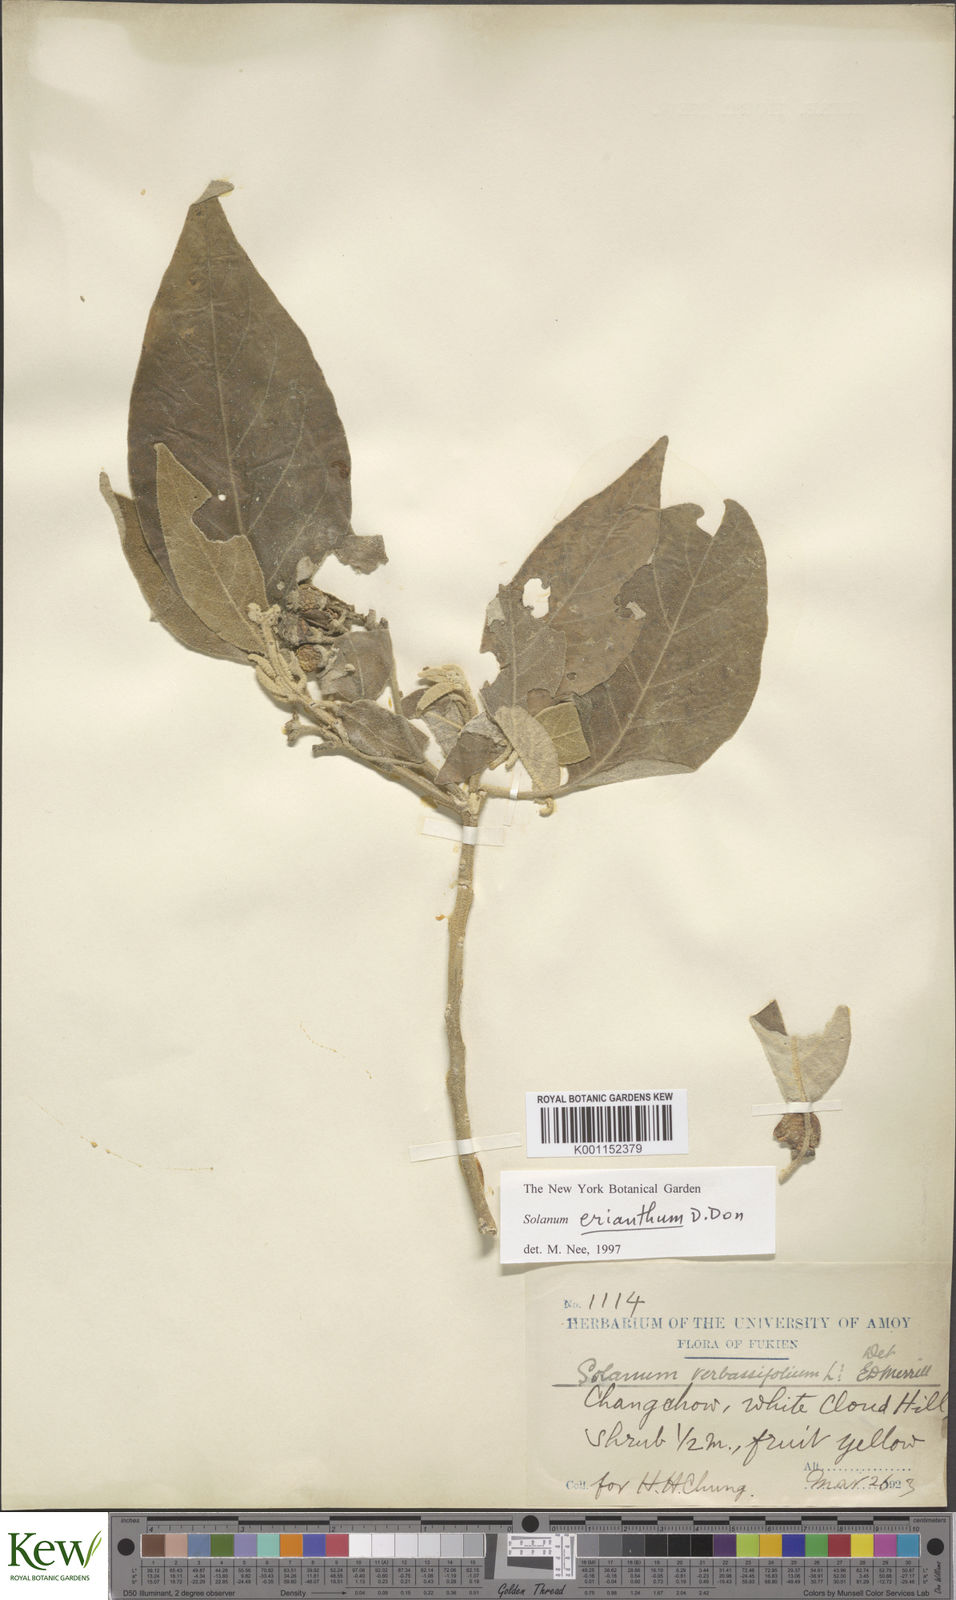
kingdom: Plantae
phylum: Tracheophyta
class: Magnoliopsida
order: Solanales
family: Solanaceae
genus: Solanum
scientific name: Solanum donianum
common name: Mullein nightshade
